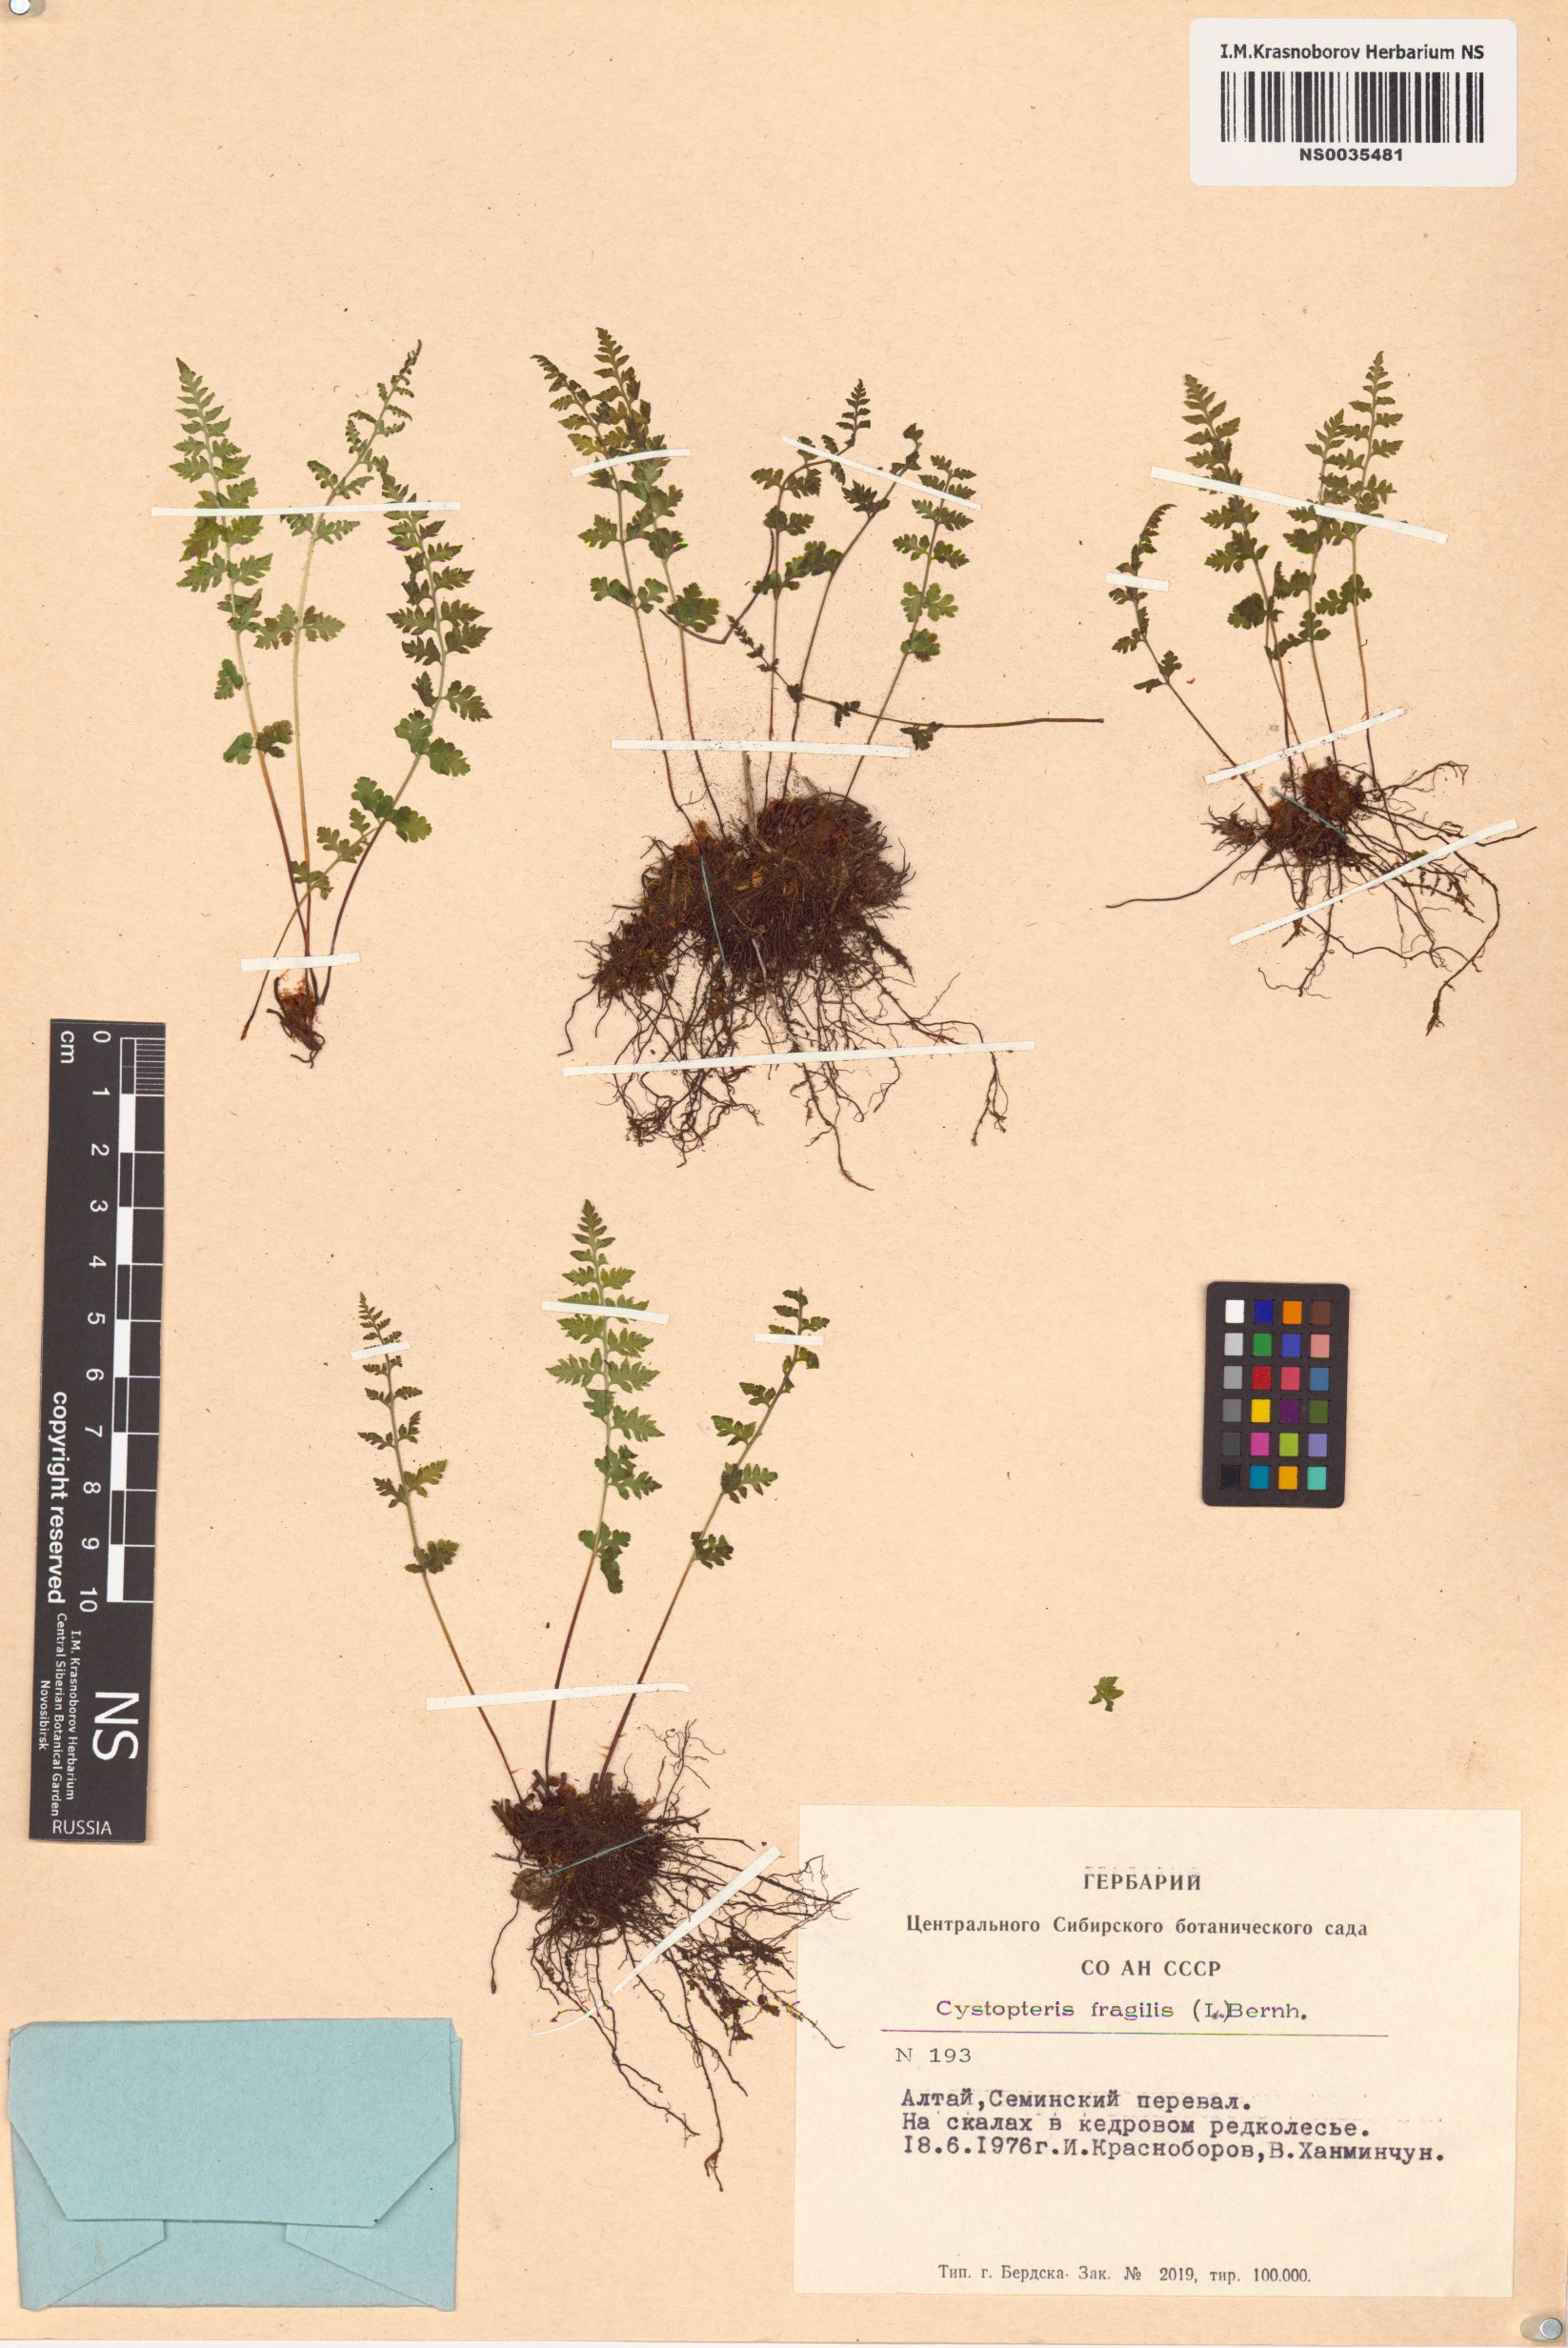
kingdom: Plantae
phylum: Tracheophyta
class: Polypodiopsida
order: Polypodiales
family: Cystopteridaceae
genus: Cystopteris
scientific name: Cystopteris fragilis
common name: Brittle bladder fern
